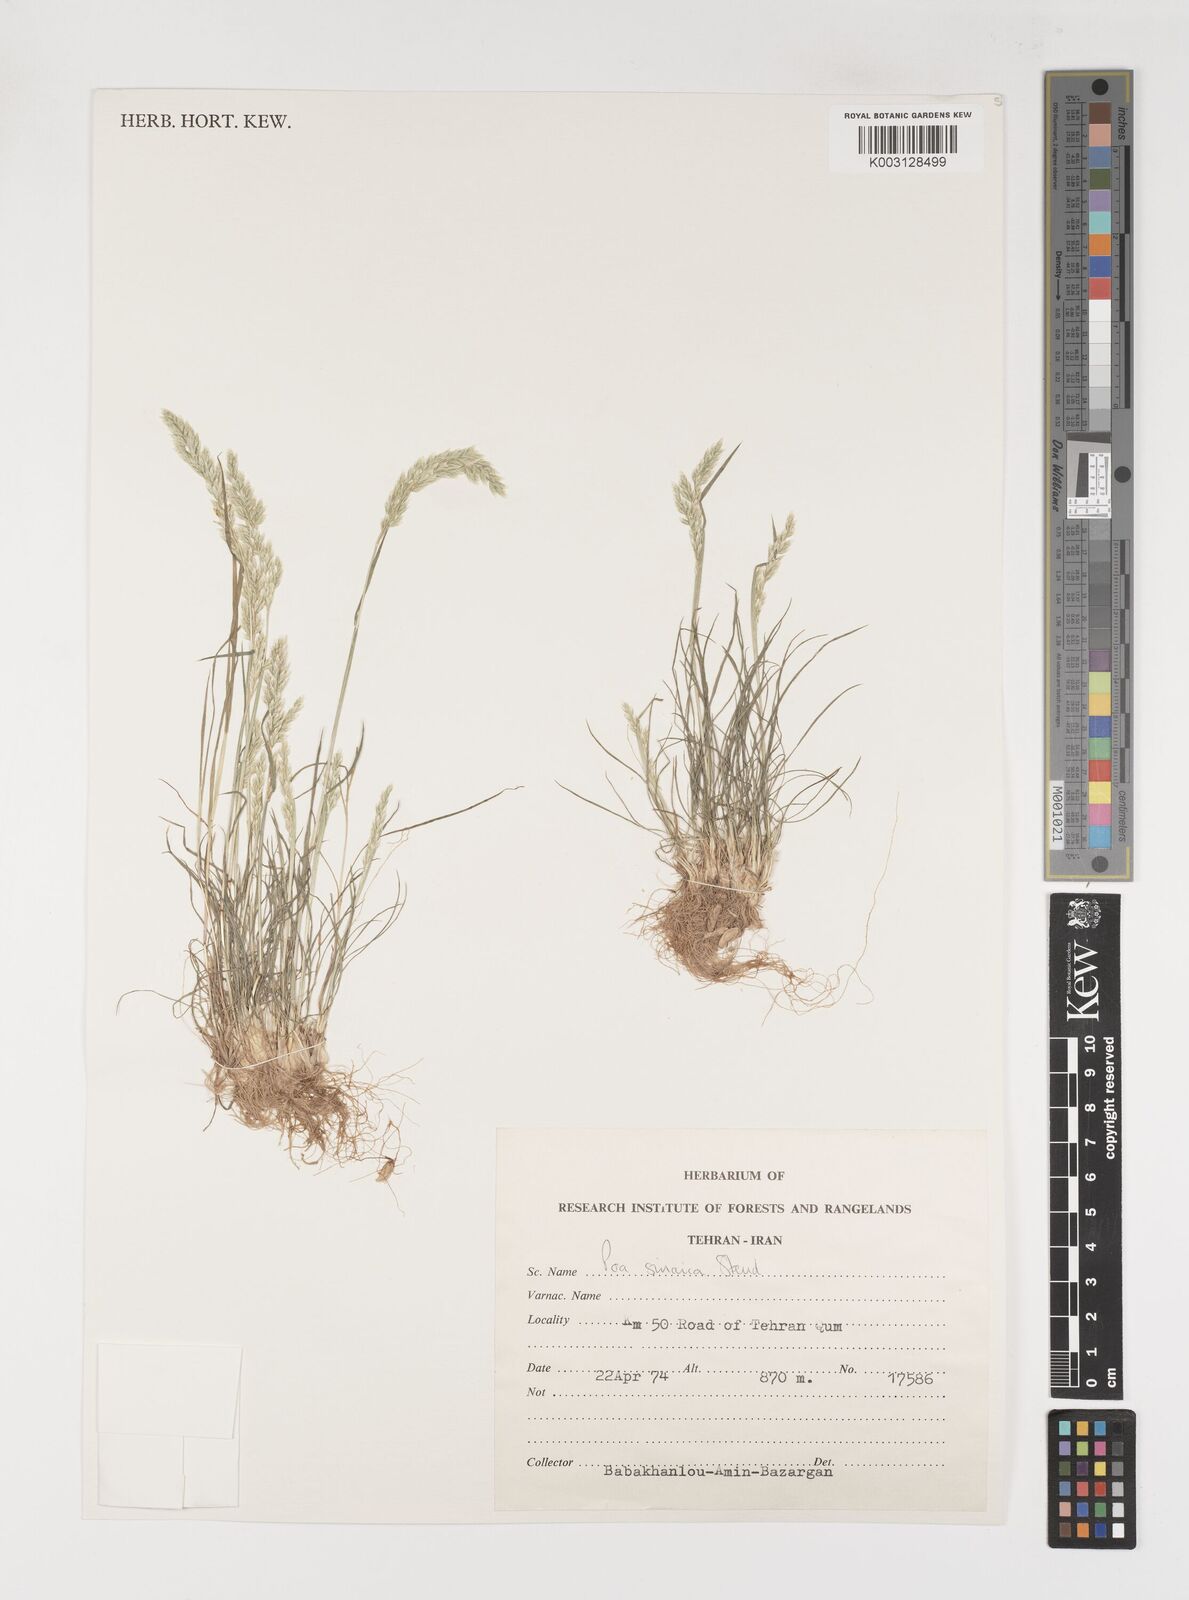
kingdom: Plantae
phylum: Tracheophyta
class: Liliopsida
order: Poales
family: Poaceae
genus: Poa
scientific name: Poa sinaica
